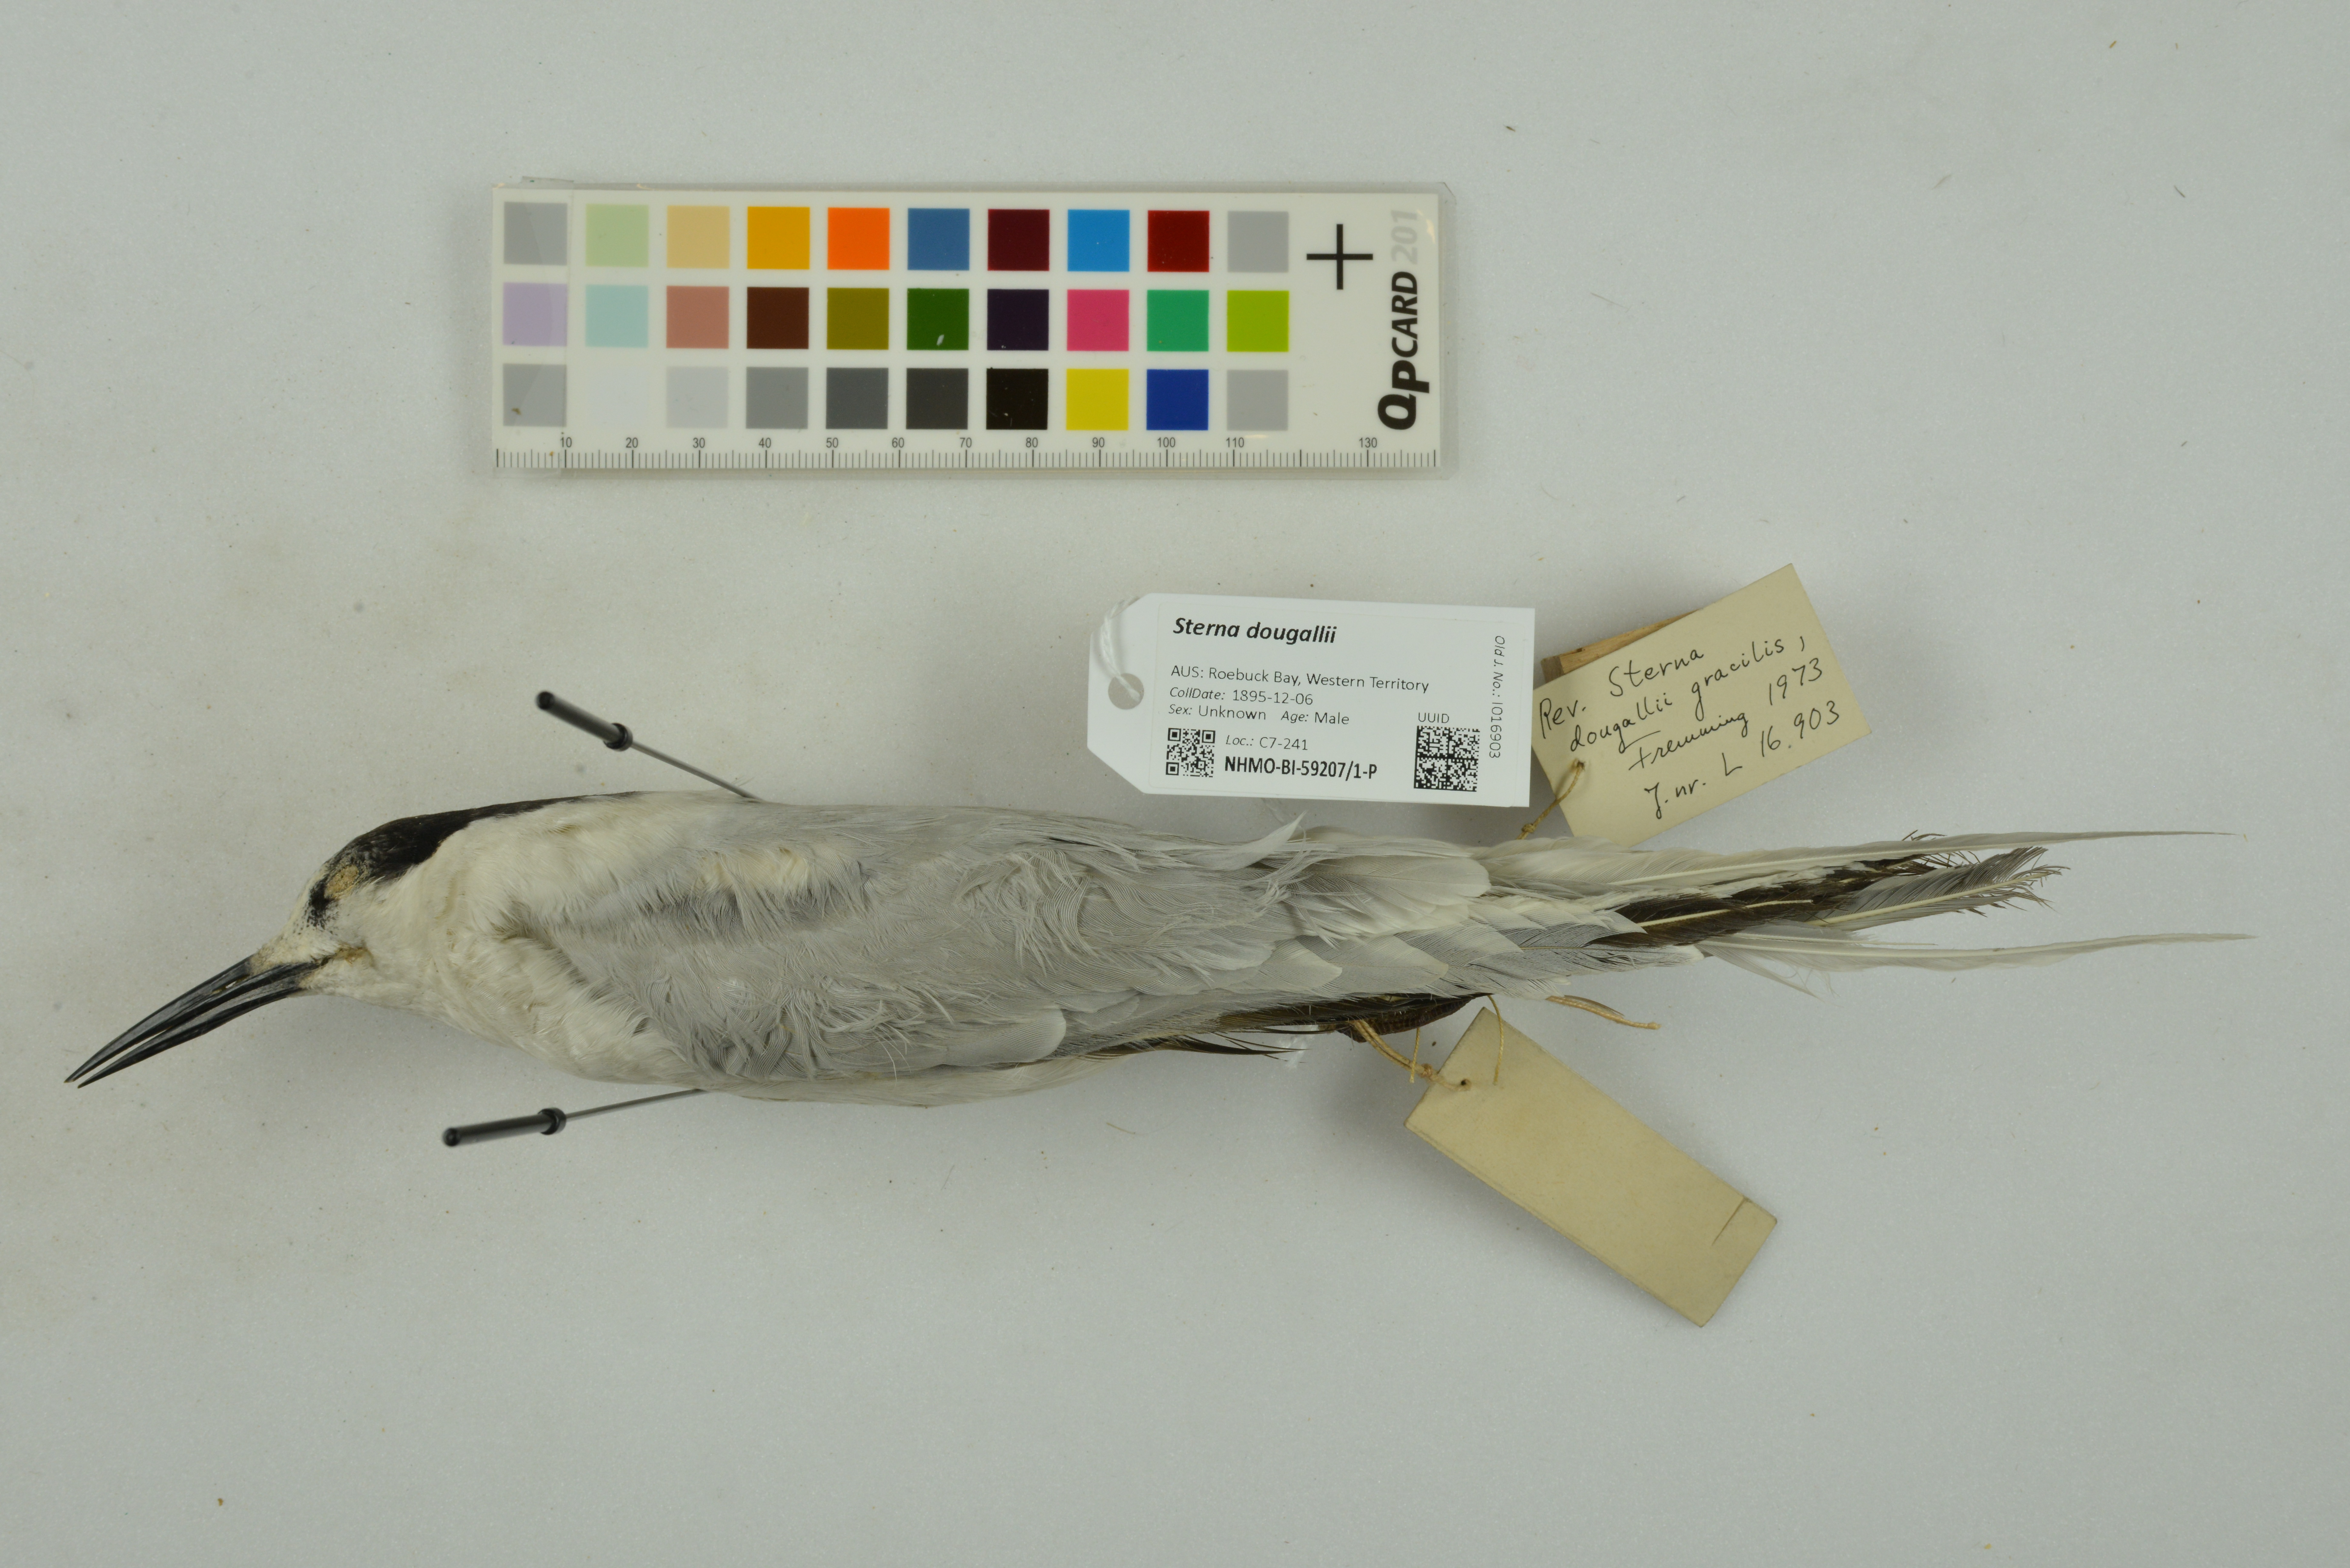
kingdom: Animalia
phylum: Chordata
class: Aves
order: Charadriiformes
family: Laridae
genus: Sterna
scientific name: Sterna dougallii
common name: Roseate tern
